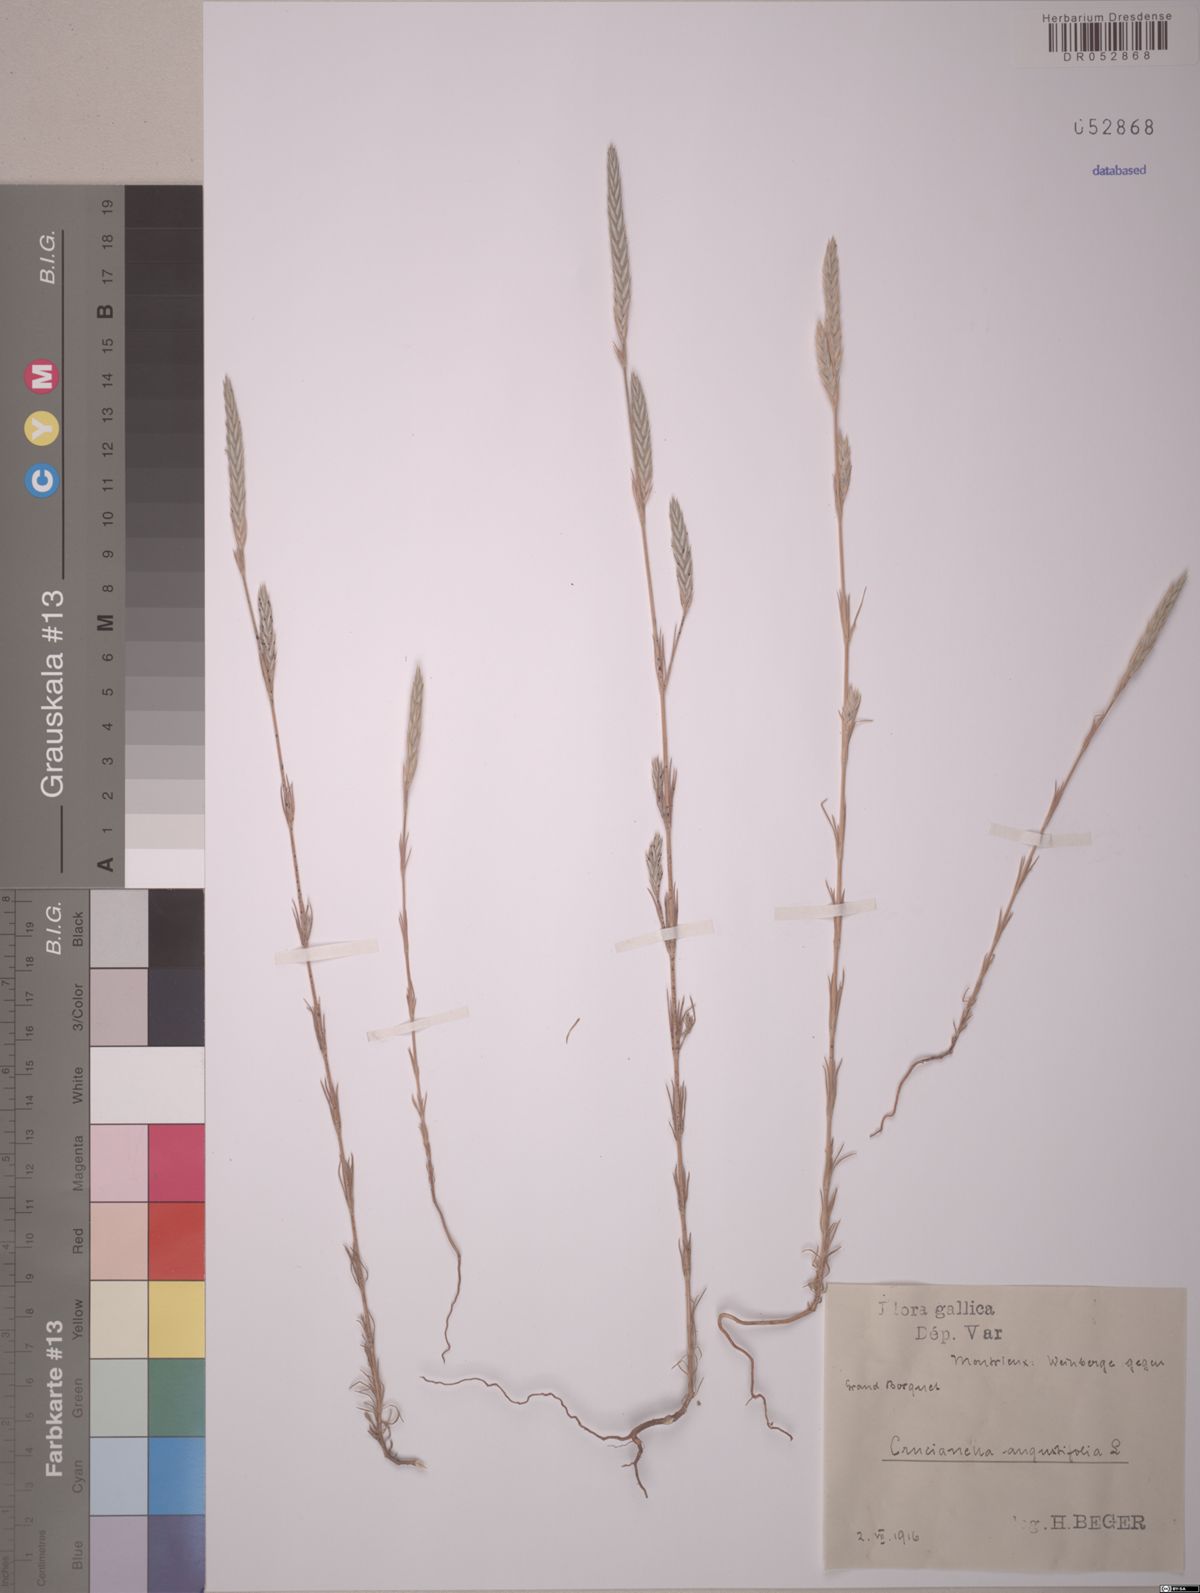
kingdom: Plantae
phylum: Tracheophyta
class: Magnoliopsida
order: Gentianales
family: Rubiaceae
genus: Crucianella
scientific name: Crucianella angustifolia
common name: Narrowleaf crucianella
